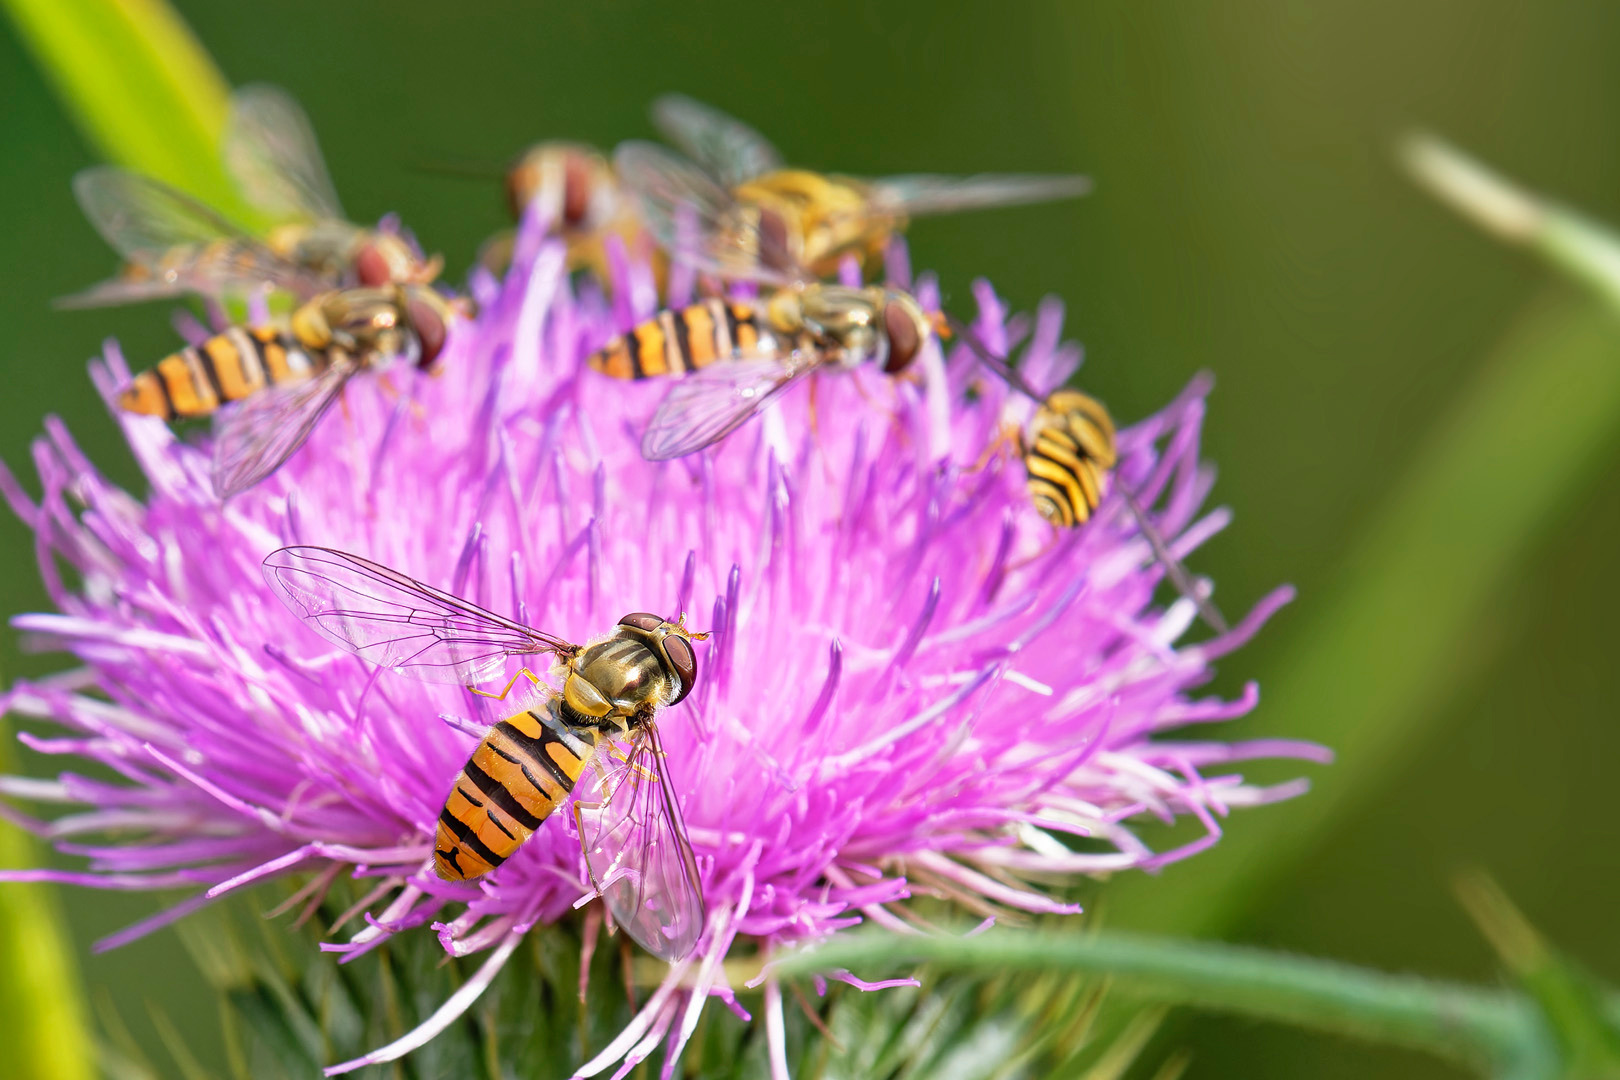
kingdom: Animalia
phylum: Arthropoda
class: Insecta
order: Diptera
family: Syrphidae
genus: Episyrphus
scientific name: Episyrphus balteatus
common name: Dobbeltbåndet svirreflue
